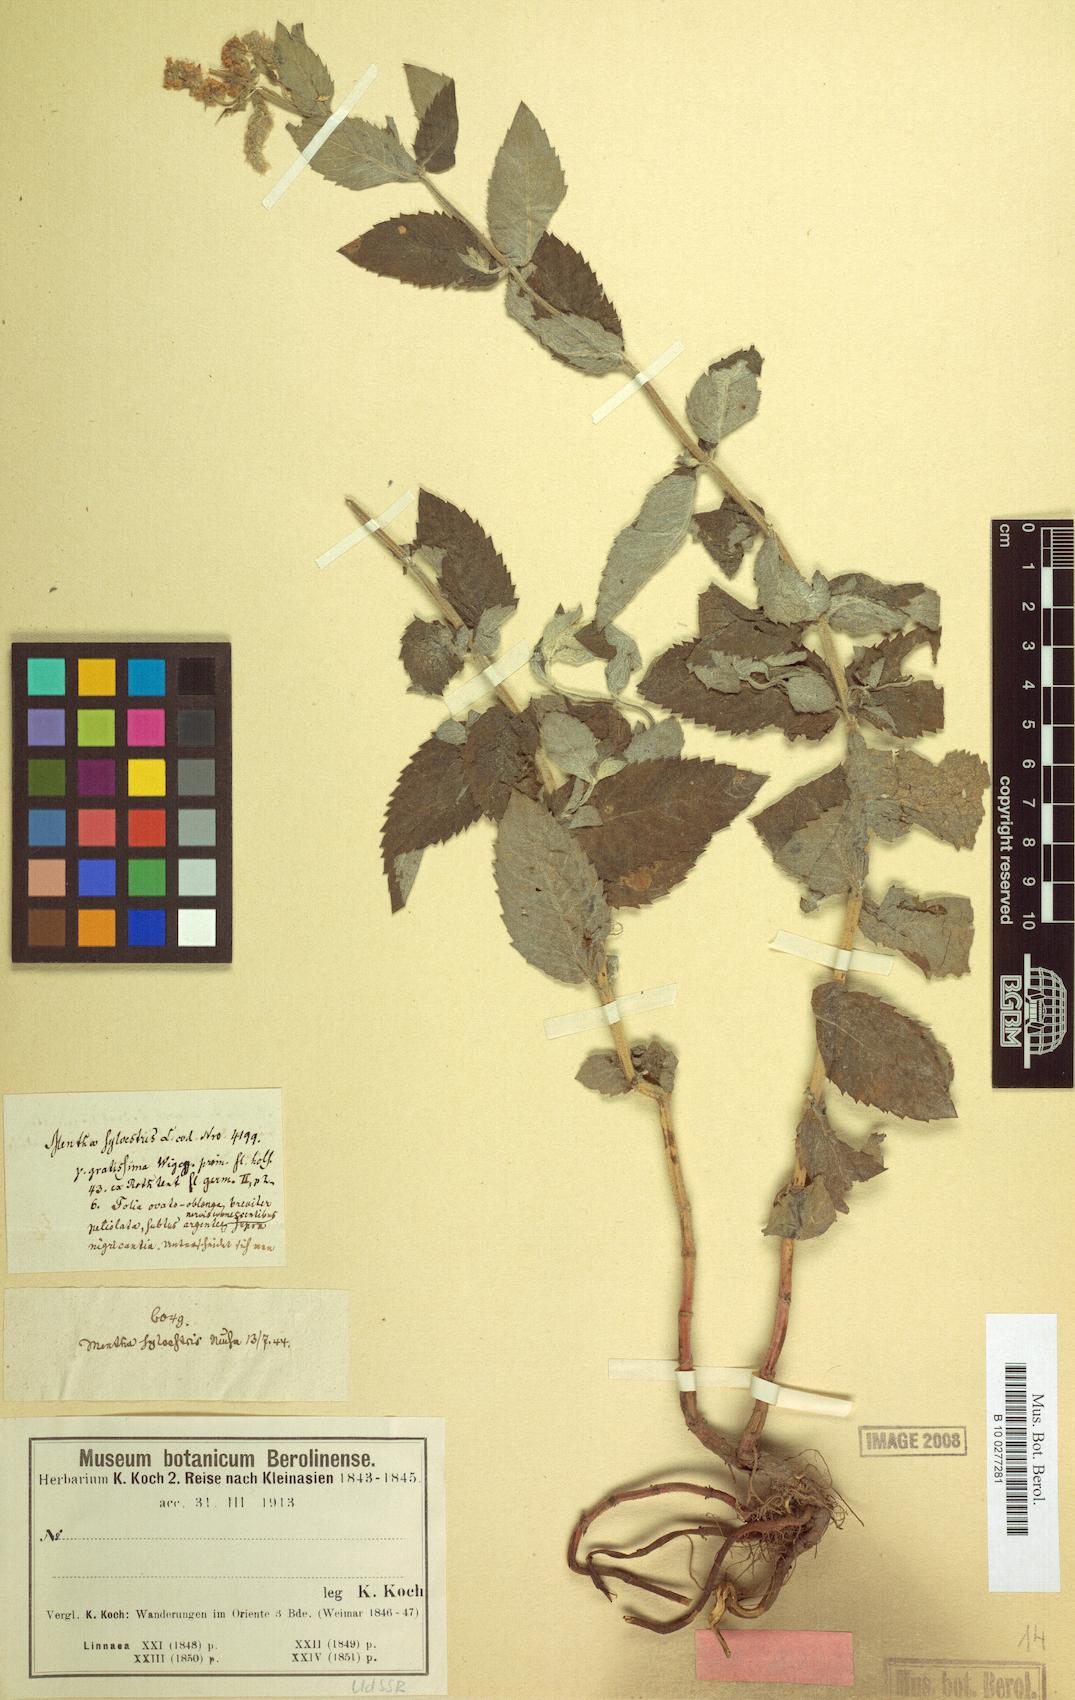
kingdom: Plantae
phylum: Tracheophyta
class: Magnoliopsida
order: Lamiales
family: Lamiaceae
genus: Mentha
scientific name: Mentha longifolia
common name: Horse mint
